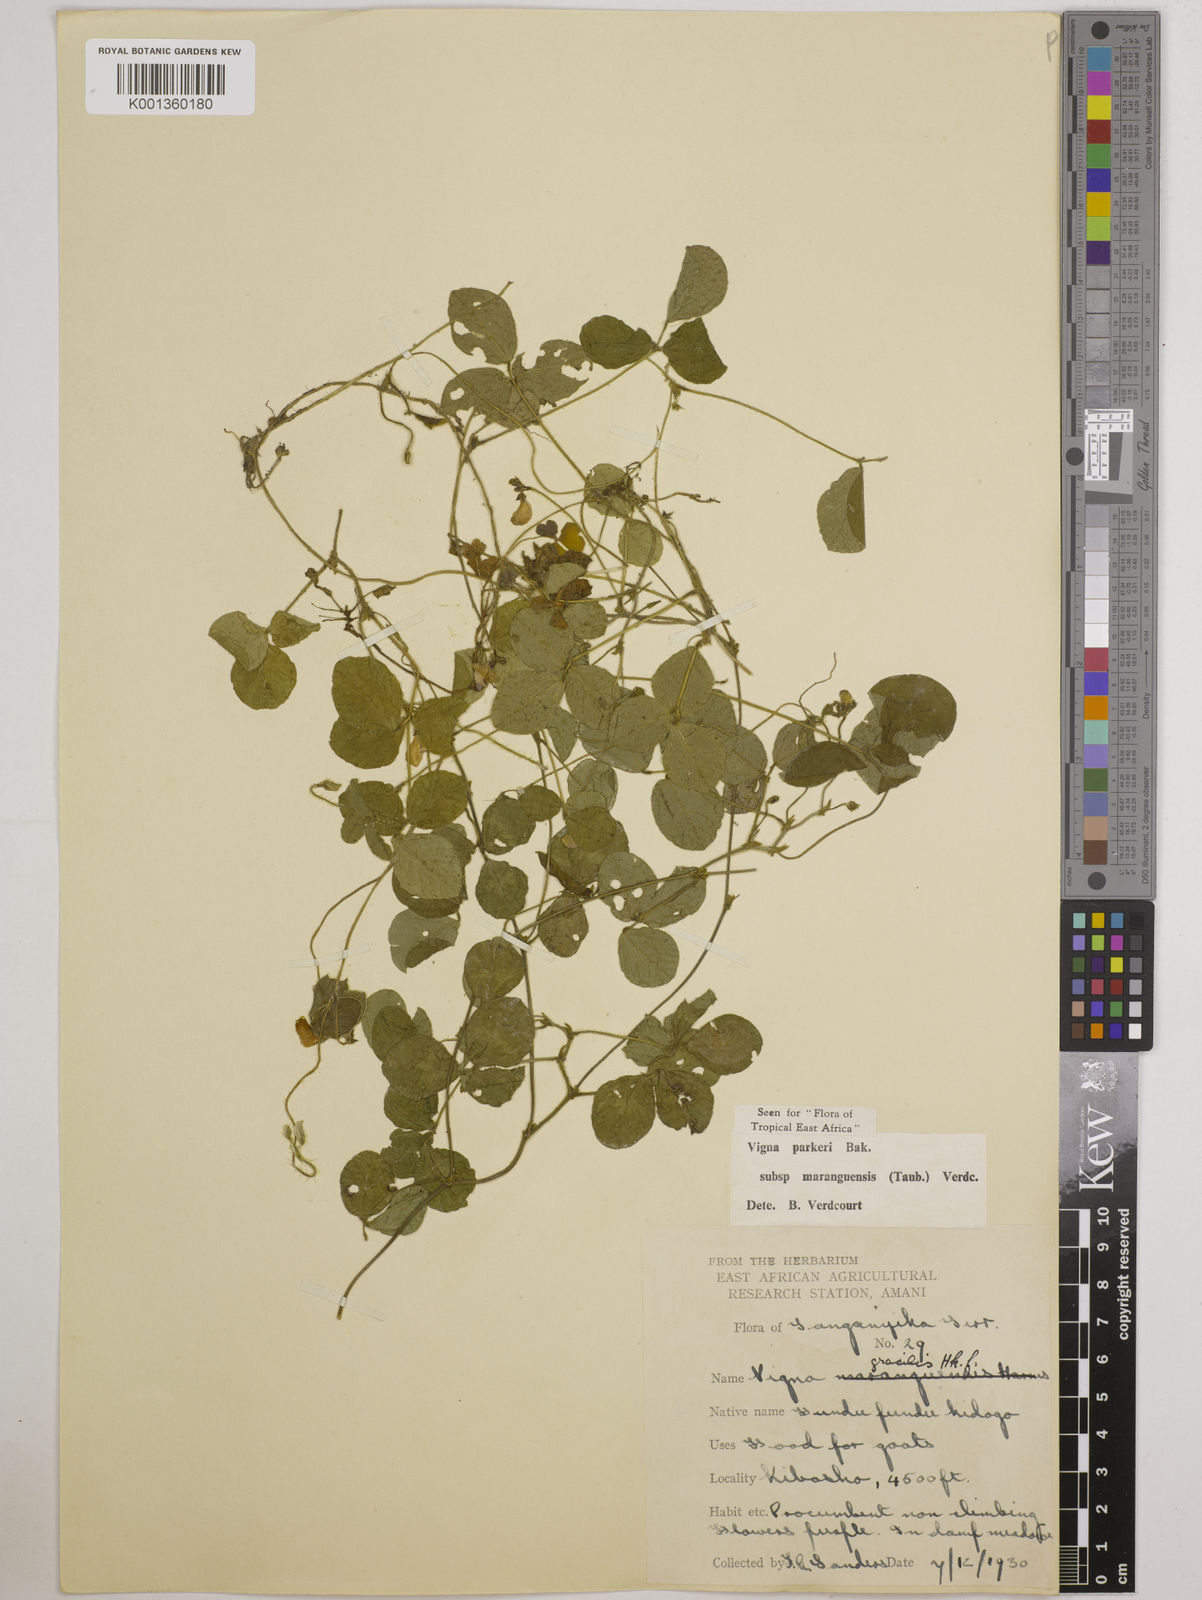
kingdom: Plantae
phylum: Tracheophyta
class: Magnoliopsida
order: Fabales
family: Fabaceae
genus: Vigna
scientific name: Vigna
